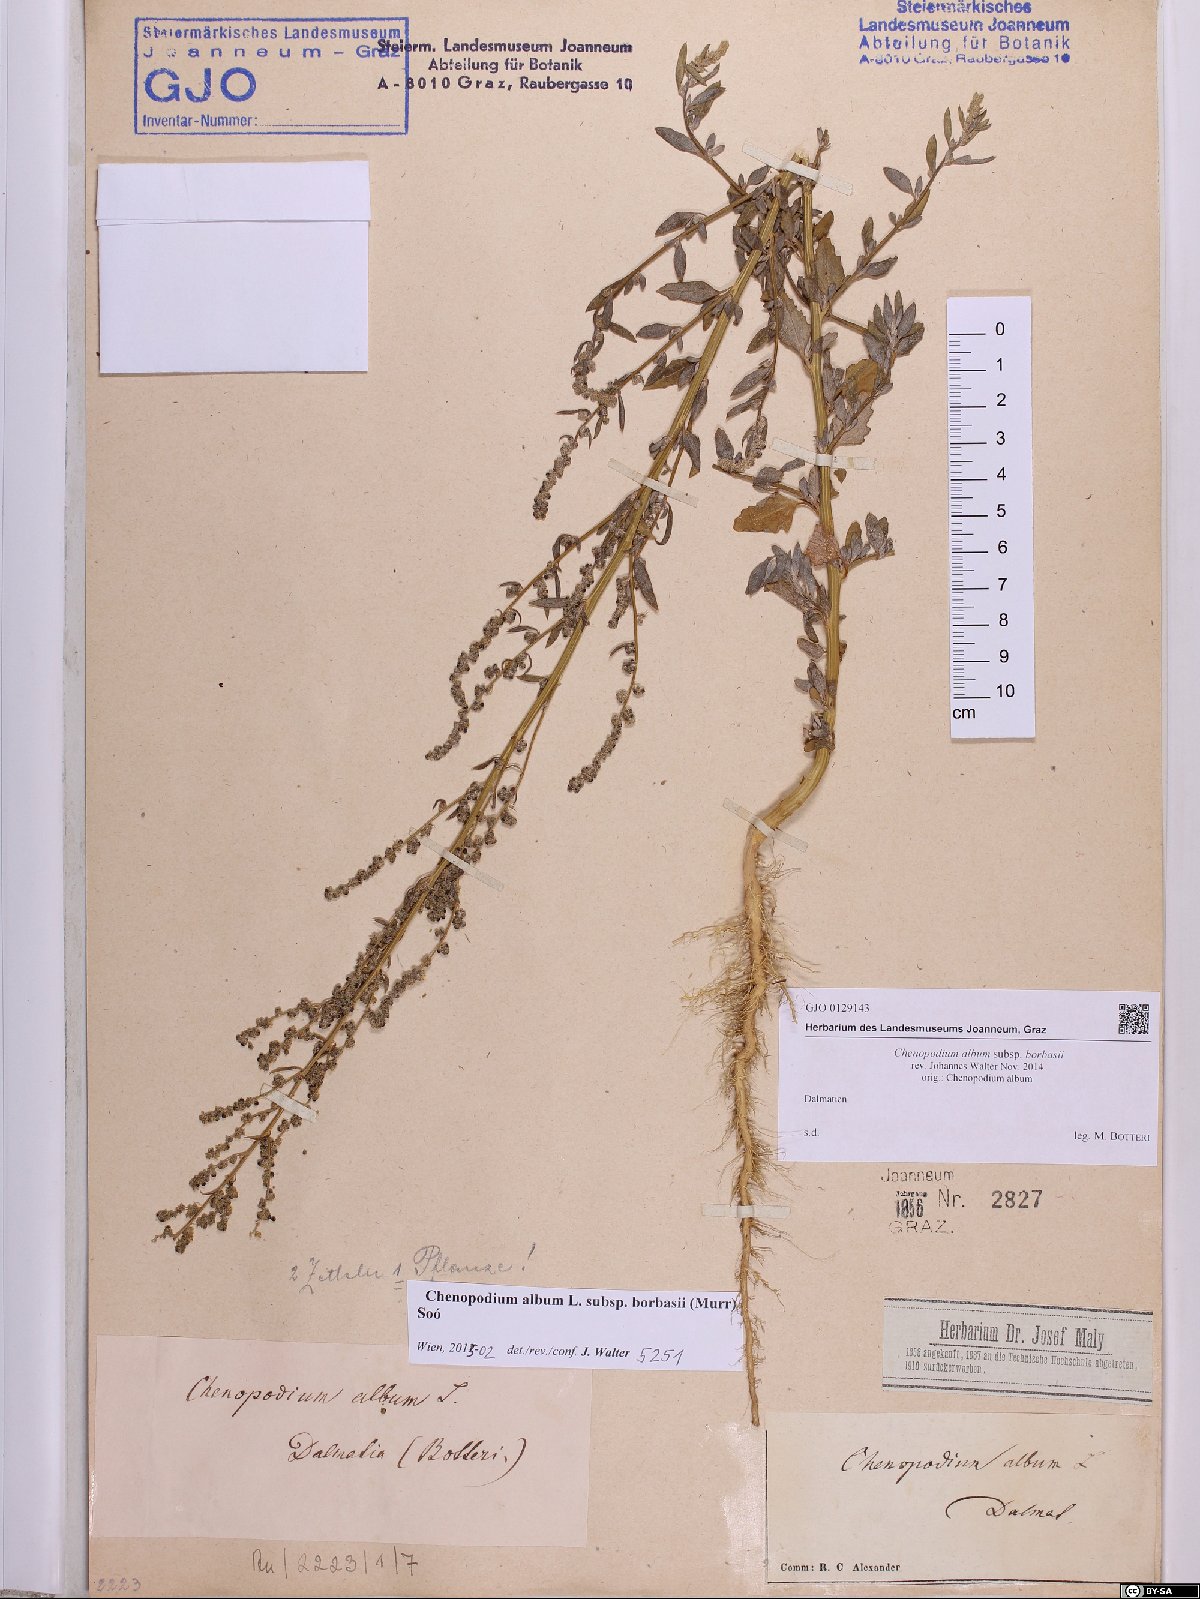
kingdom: Plantae
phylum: Tracheophyta
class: Magnoliopsida
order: Caryophyllales
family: Amaranthaceae
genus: Chenopodium
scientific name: Chenopodium borbasii
